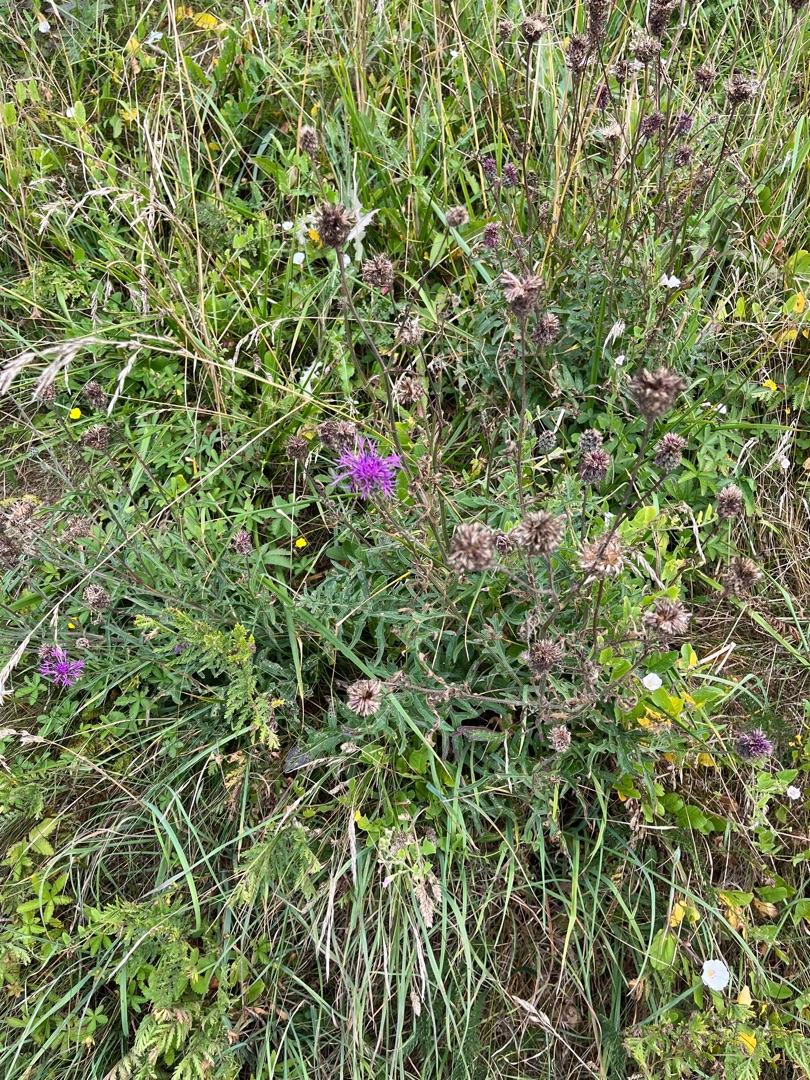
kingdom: Plantae
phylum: Tracheophyta
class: Magnoliopsida
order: Asterales
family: Asteraceae
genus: Centaurea
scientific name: Centaurea scabiosa
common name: Stor knopurt
